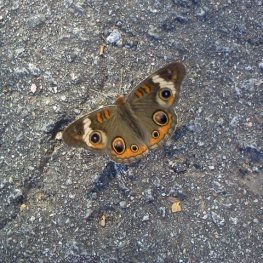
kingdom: Animalia
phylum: Arthropoda
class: Insecta
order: Lepidoptera
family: Nymphalidae
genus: Junonia
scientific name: Junonia coenia
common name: Common Buckeye
